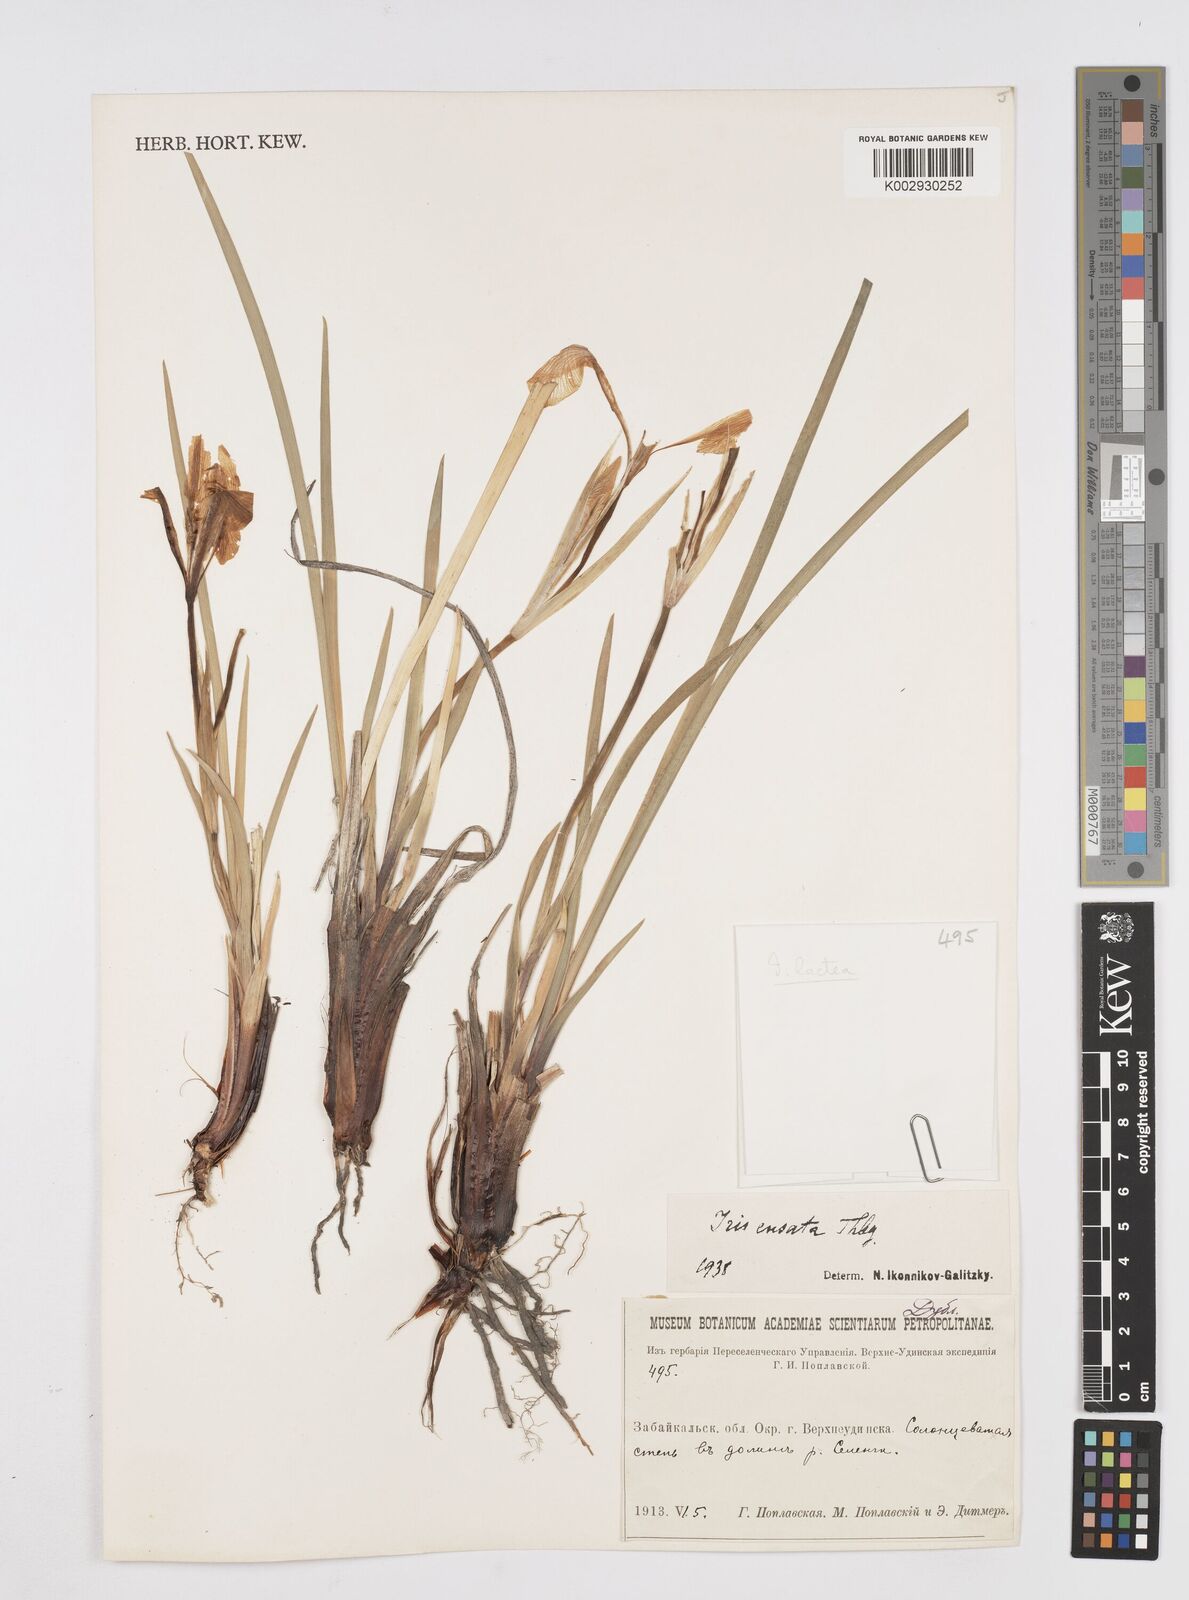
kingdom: Plantae
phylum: Tracheophyta
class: Liliopsida
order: Asparagales
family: Iridaceae
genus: Iris
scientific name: Iris lactea
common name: White-flower chinese iris
